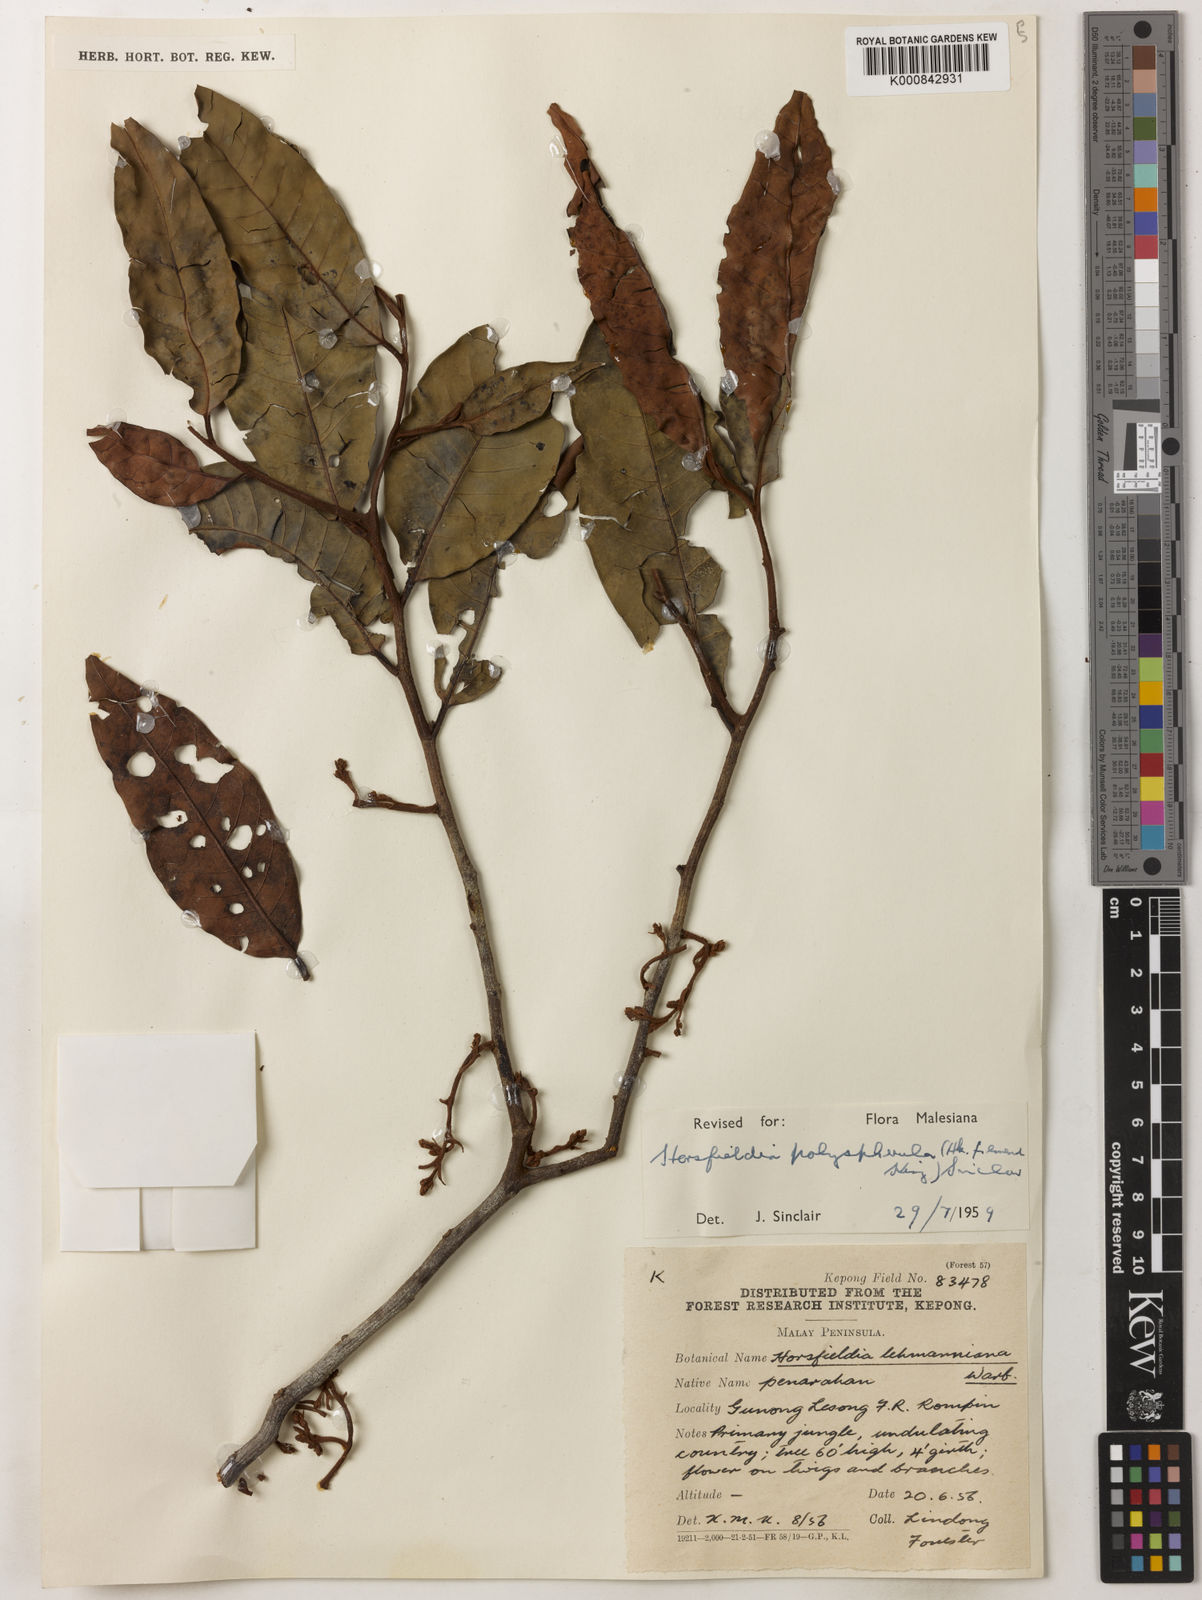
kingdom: Plantae
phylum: Tracheophyta
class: Magnoliopsida
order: Magnoliales
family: Myristicaceae
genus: Horsfieldia
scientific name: Horsfieldia polyspherula
